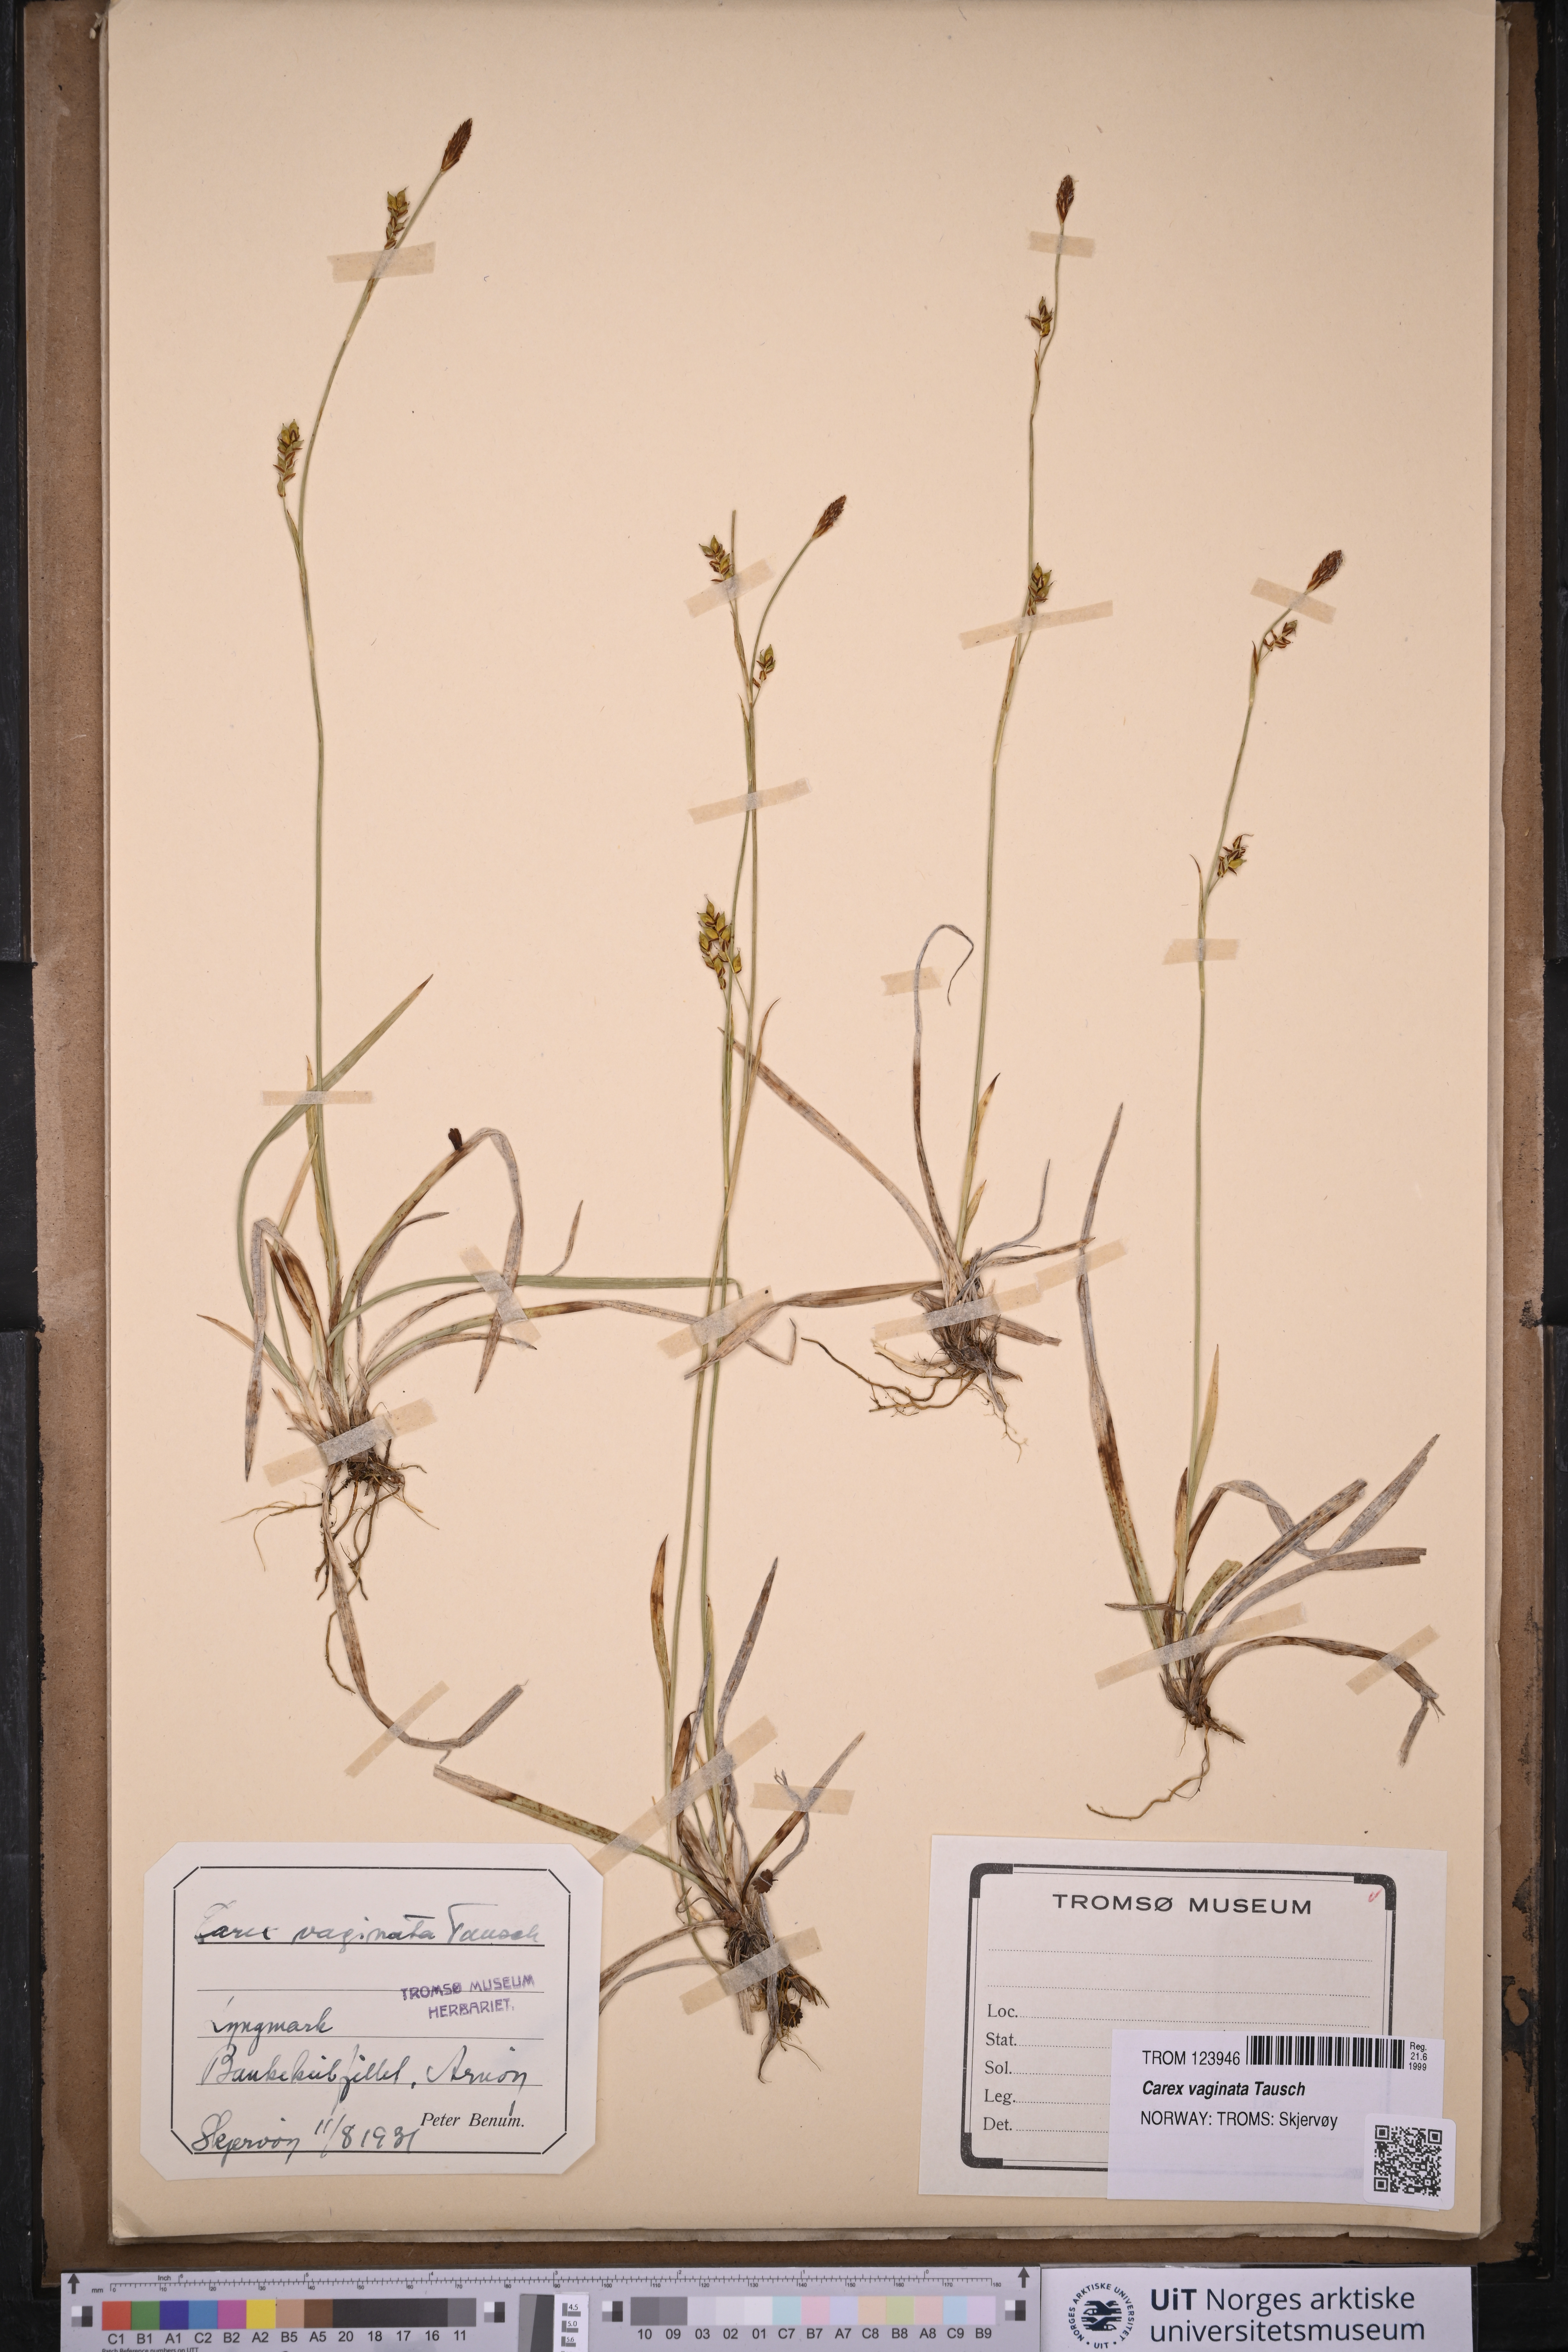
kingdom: Plantae
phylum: Tracheophyta
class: Liliopsida
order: Poales
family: Cyperaceae
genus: Carex
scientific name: Carex vaginata
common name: Sheathed sedge
